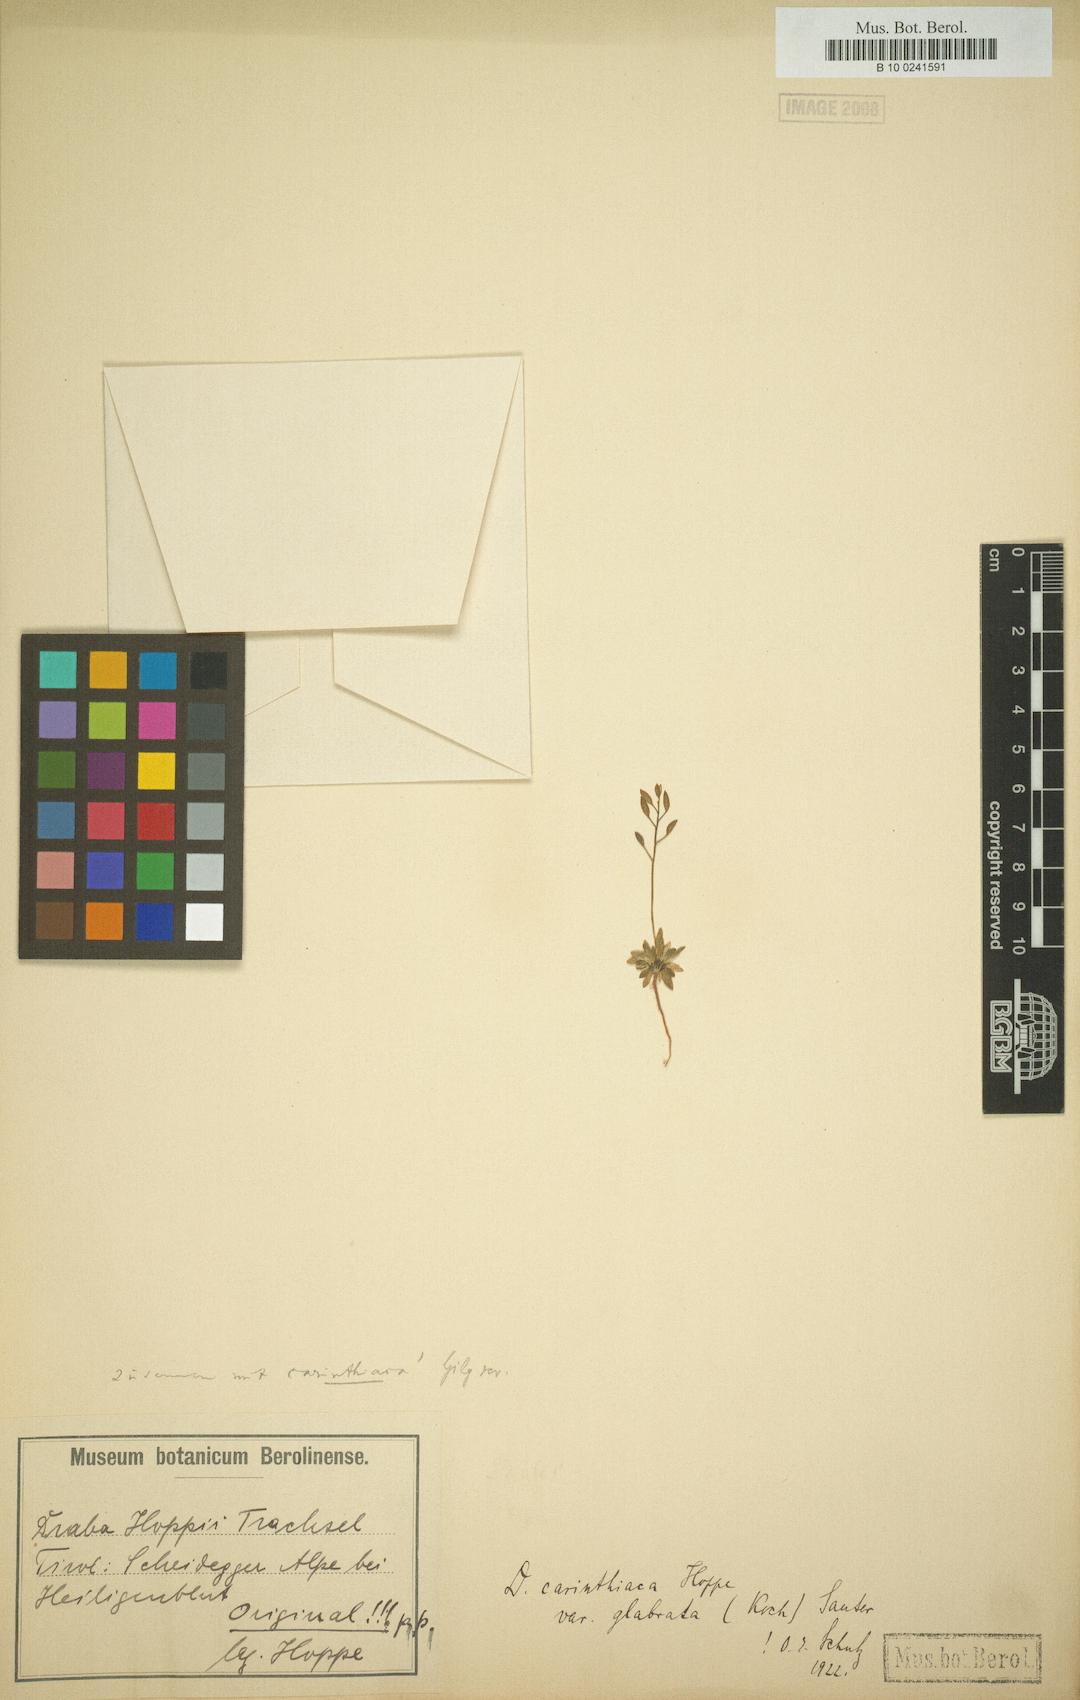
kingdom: Plantae
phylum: Tracheophyta
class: Magnoliopsida
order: Brassicales
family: Brassicaceae
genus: Draba
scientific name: Draba siliquosa
